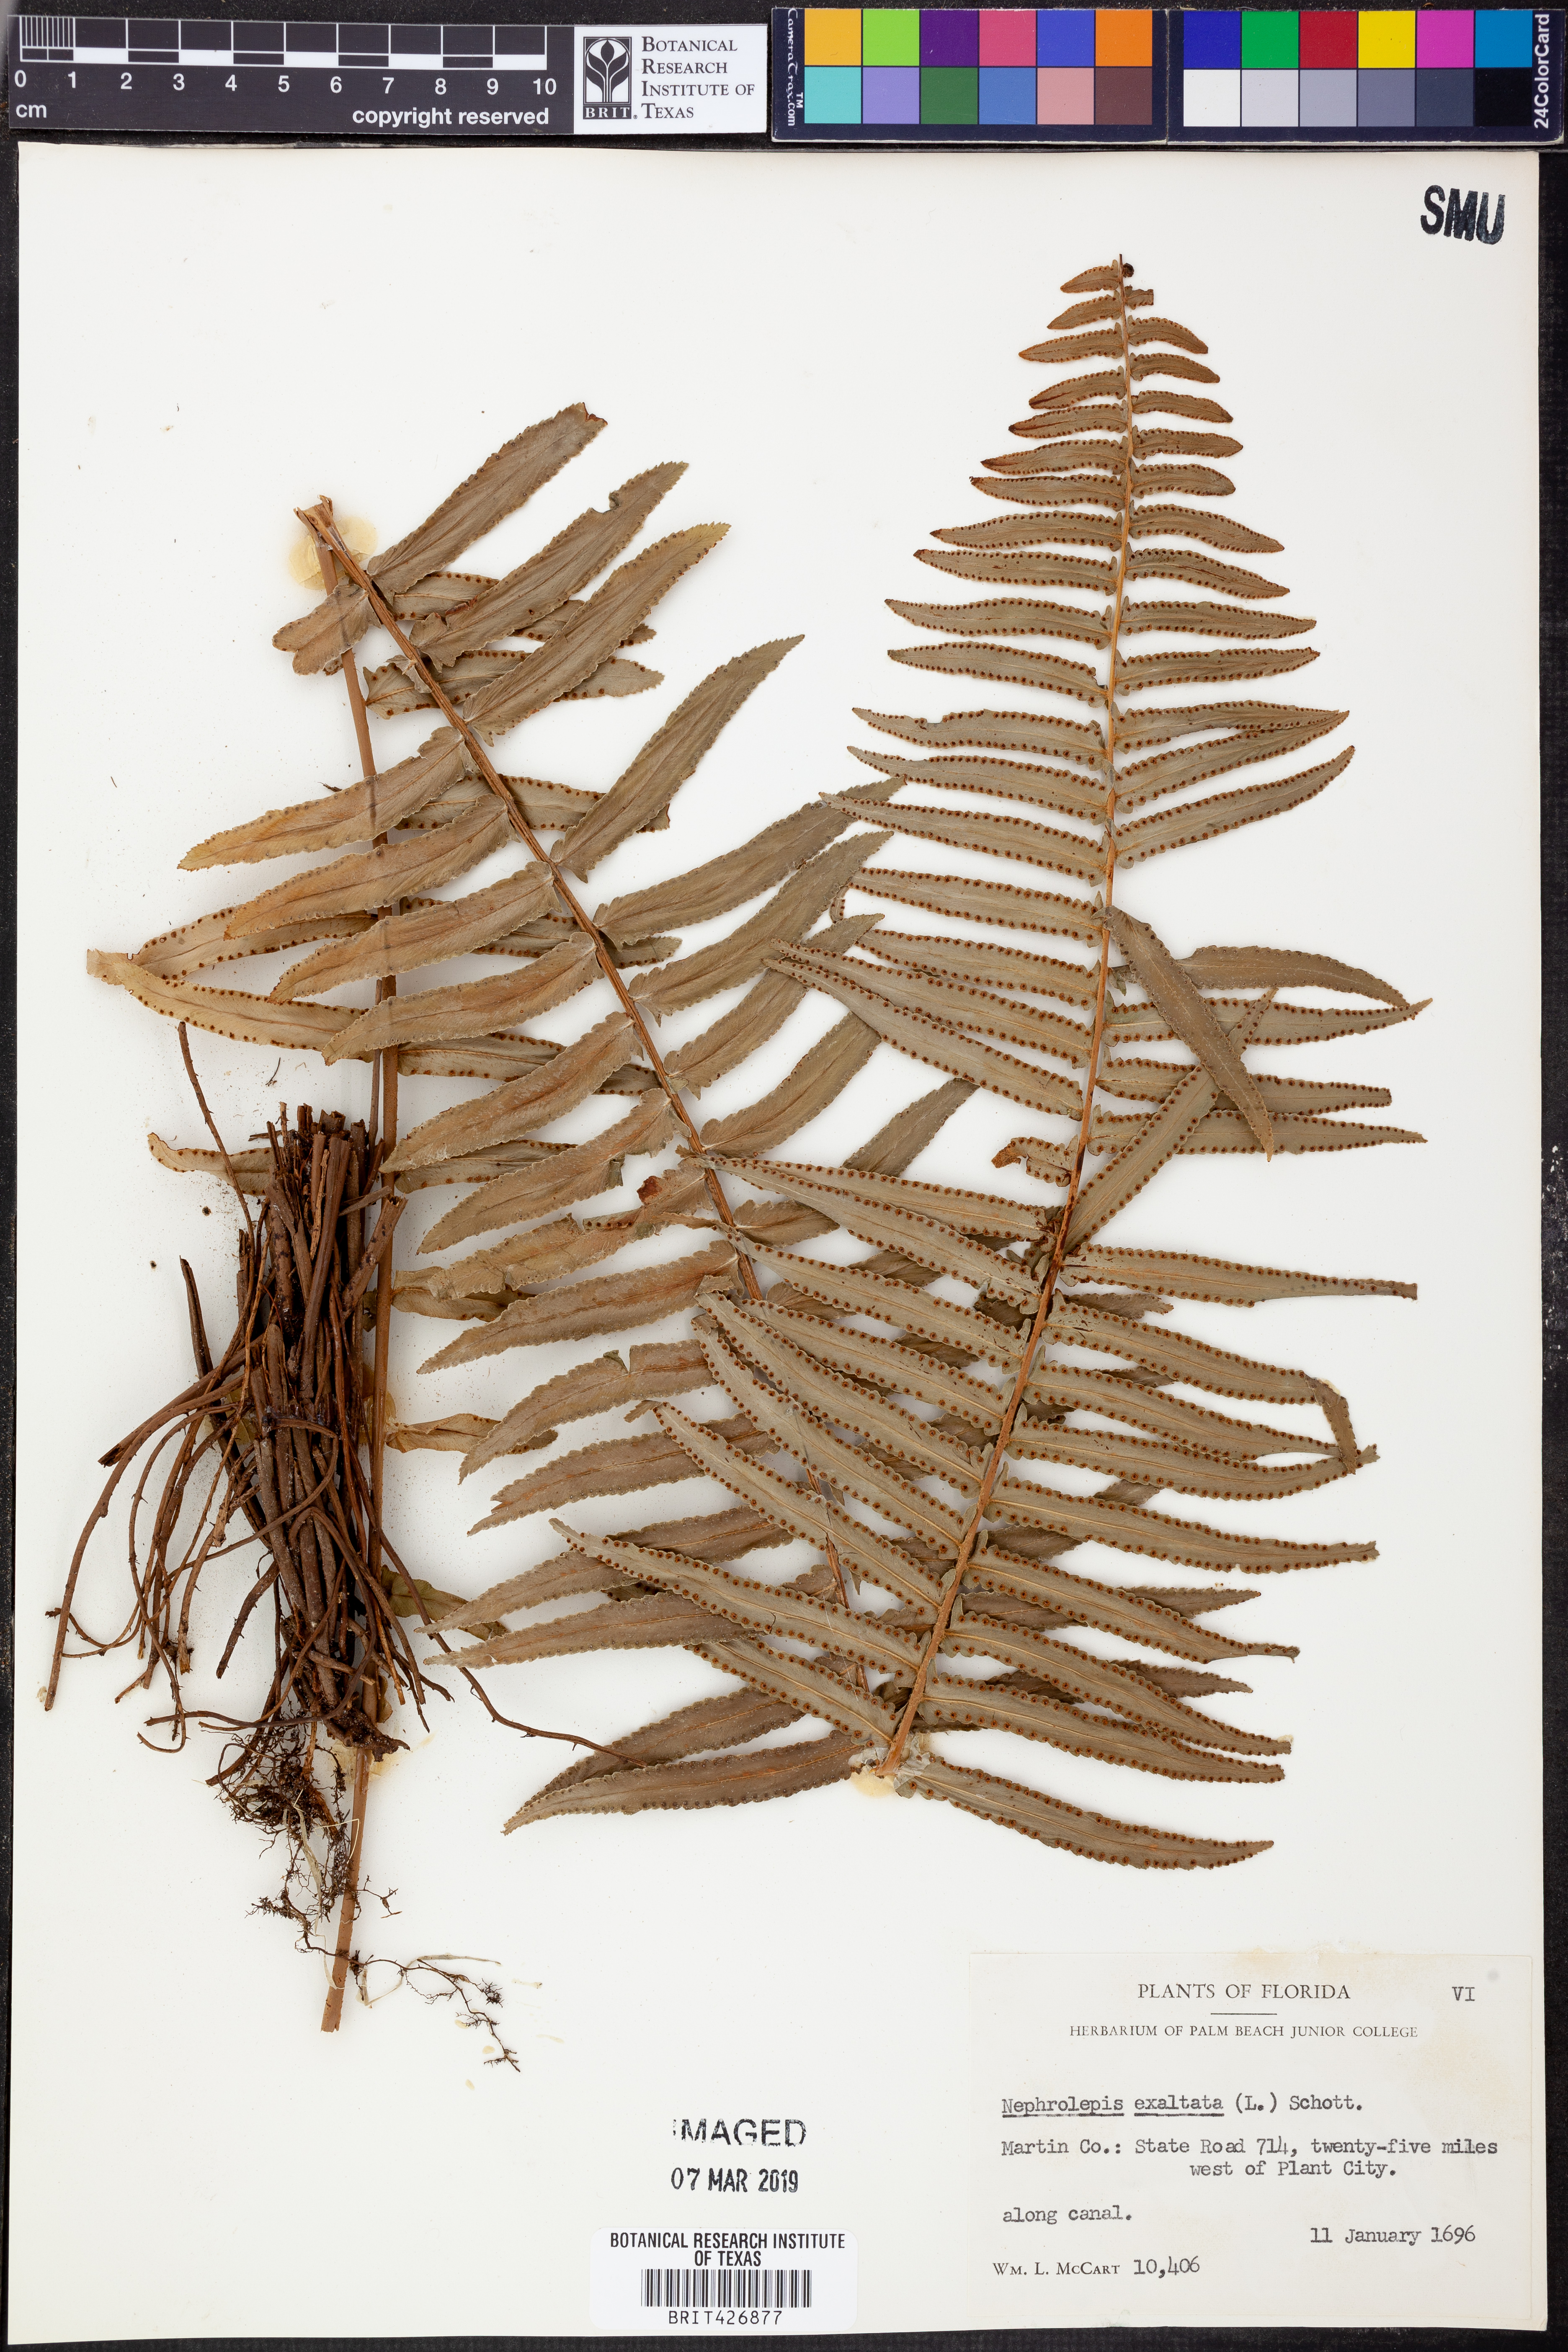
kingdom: Plantae
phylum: Tracheophyta
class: Polypodiopsida
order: Polypodiales
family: Nephrolepidaceae
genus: Nephrolepis
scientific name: Nephrolepis exaltata
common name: Sword fern
